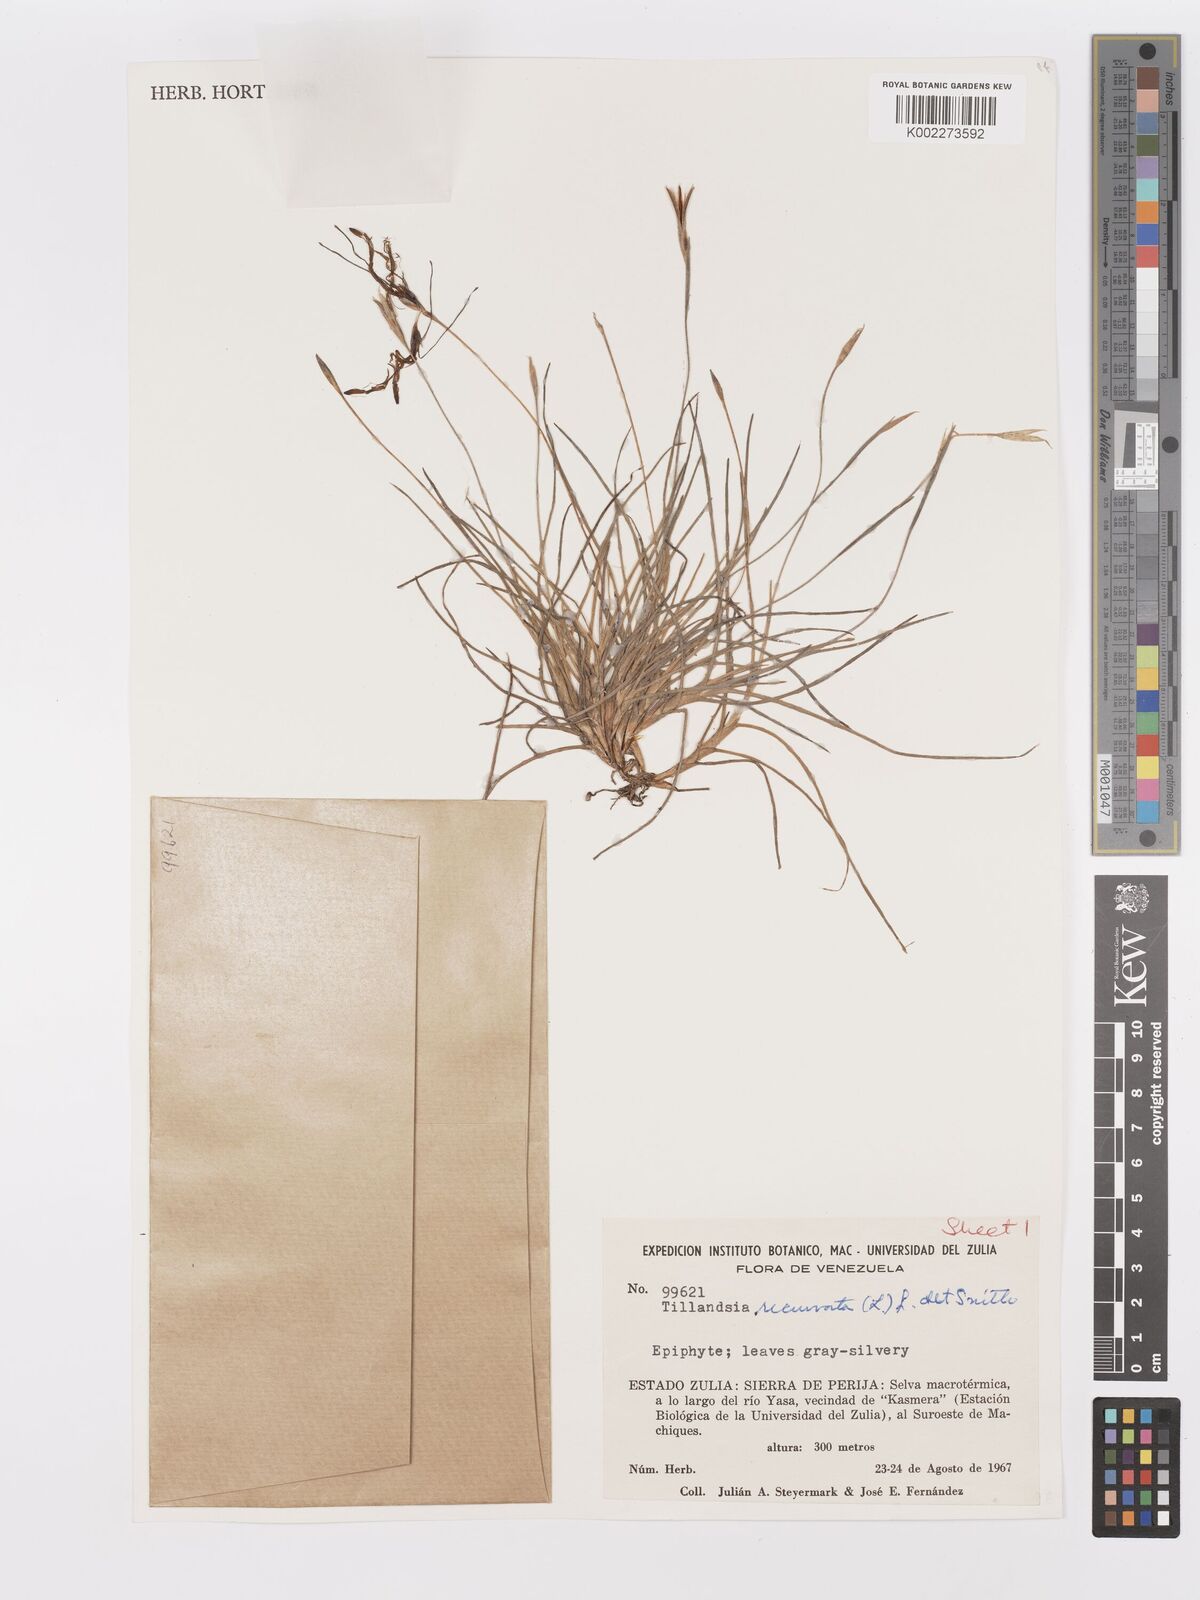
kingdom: Plantae
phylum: Tracheophyta
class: Liliopsida
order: Poales
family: Bromeliaceae
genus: Tillandsia
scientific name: Tillandsia recurvata
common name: Small ballmoss
